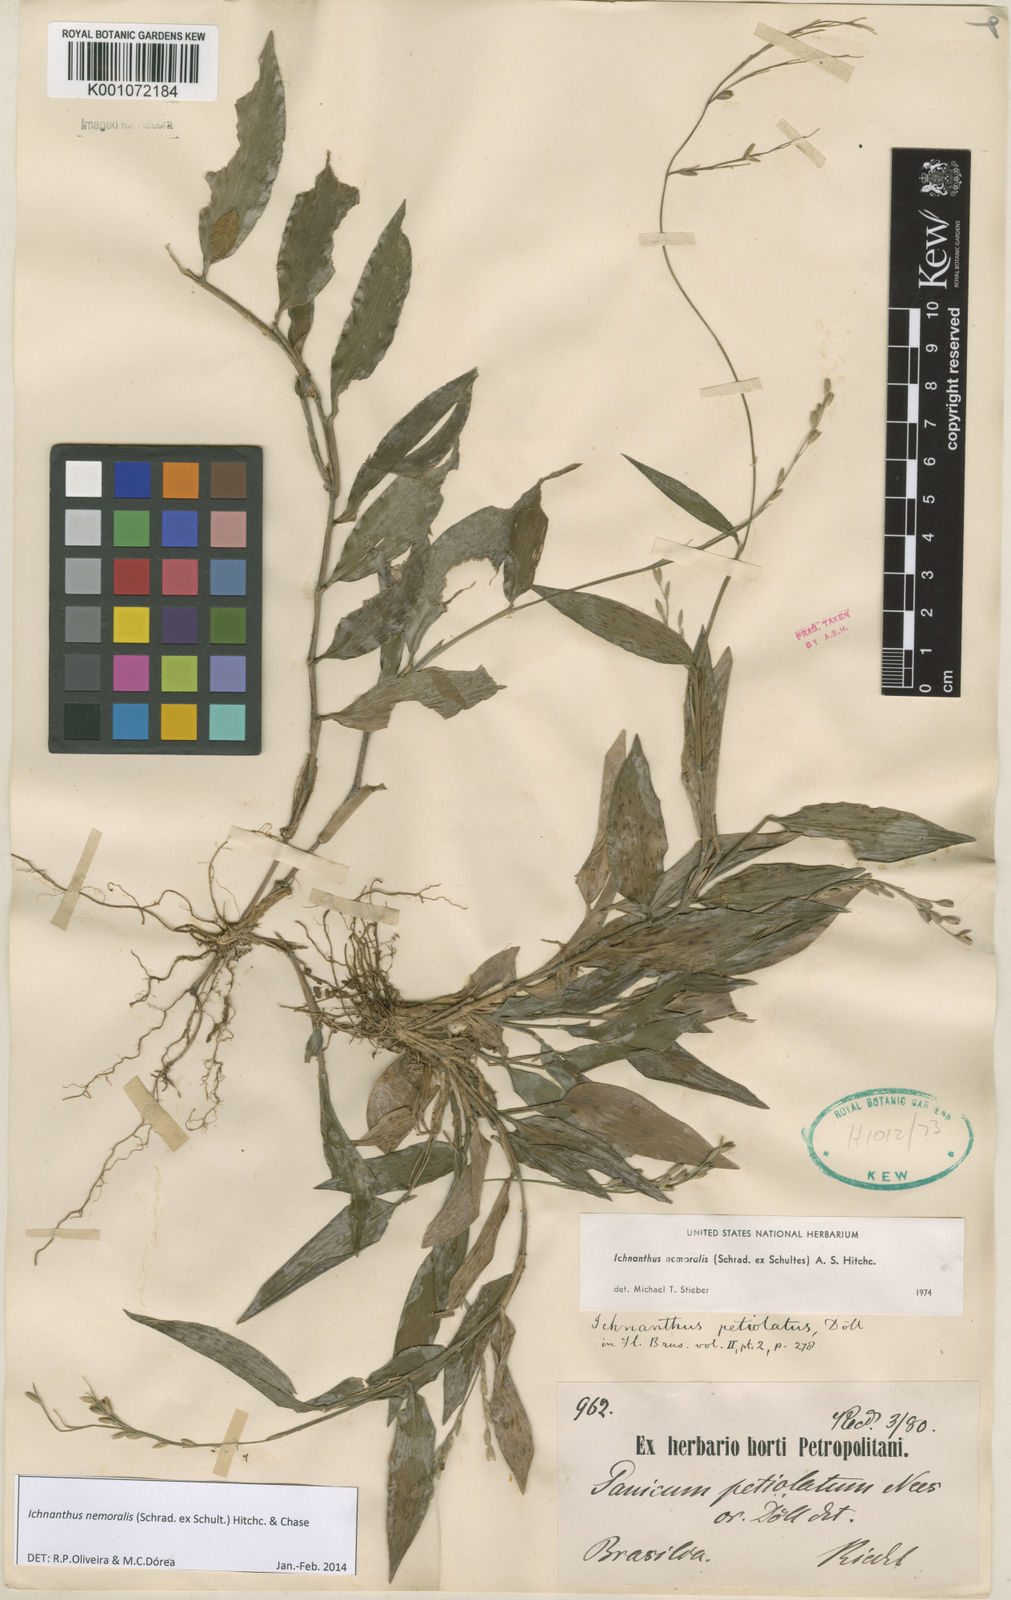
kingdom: Plantae
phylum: Tracheophyta
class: Liliopsida
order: Poales
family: Poaceae
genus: Ichnanthus
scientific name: Ichnanthus nemoralis
